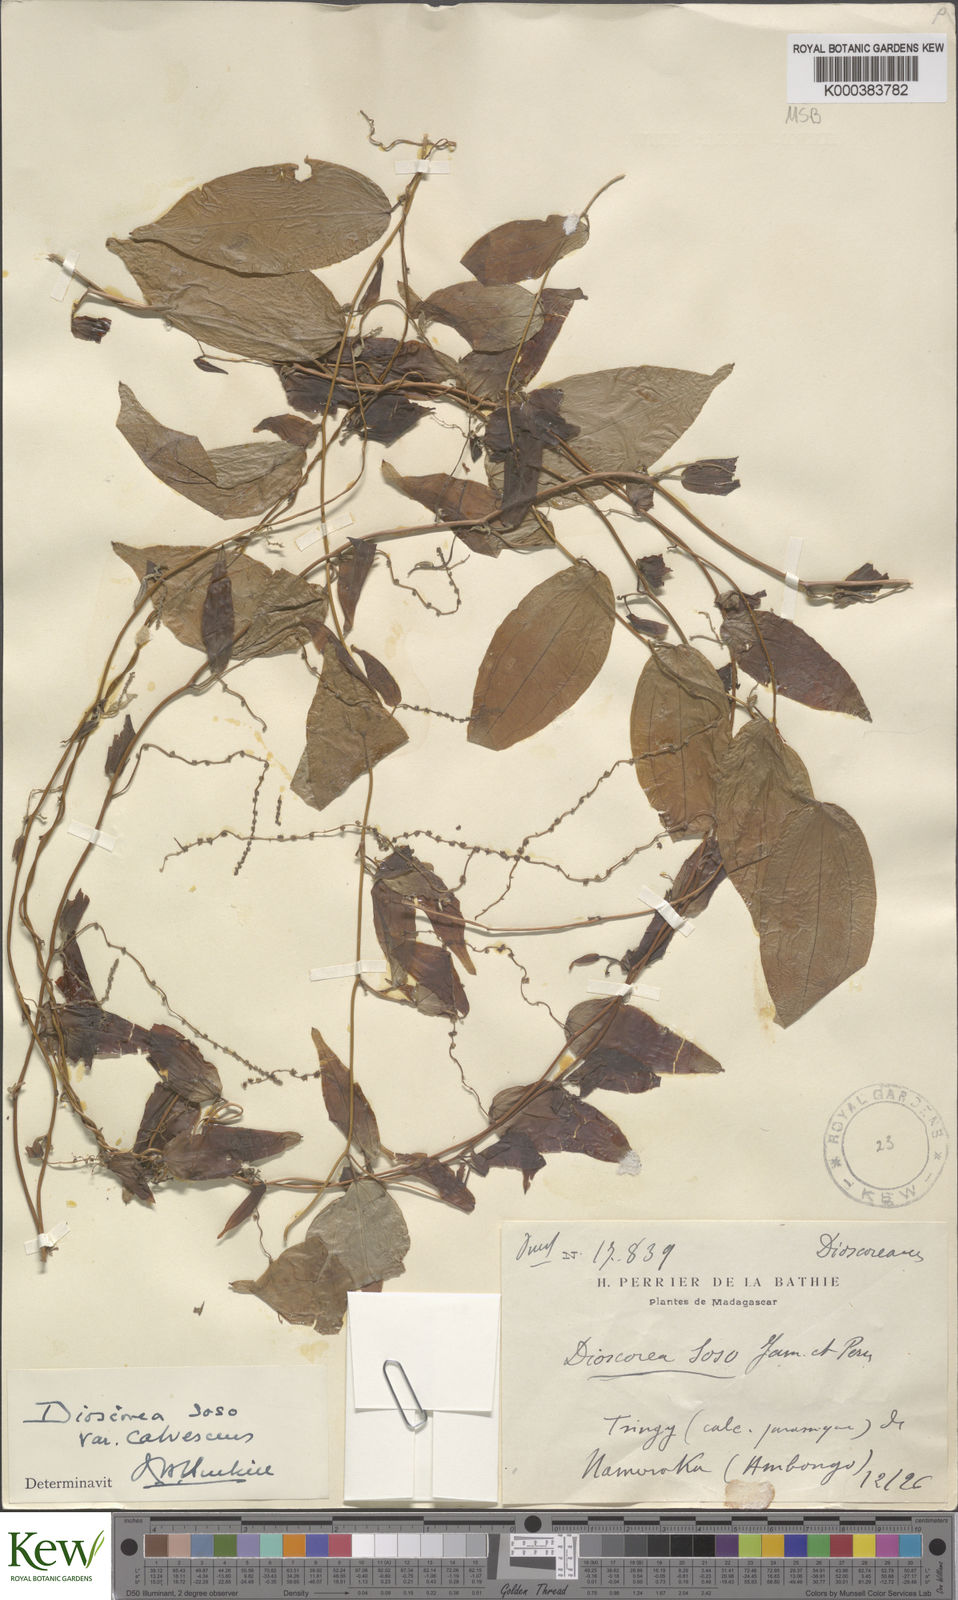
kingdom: Plantae
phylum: Tracheophyta
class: Liliopsida
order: Dioscoreales
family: Dioscoreaceae
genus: Dioscorea
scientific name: Dioscorea
